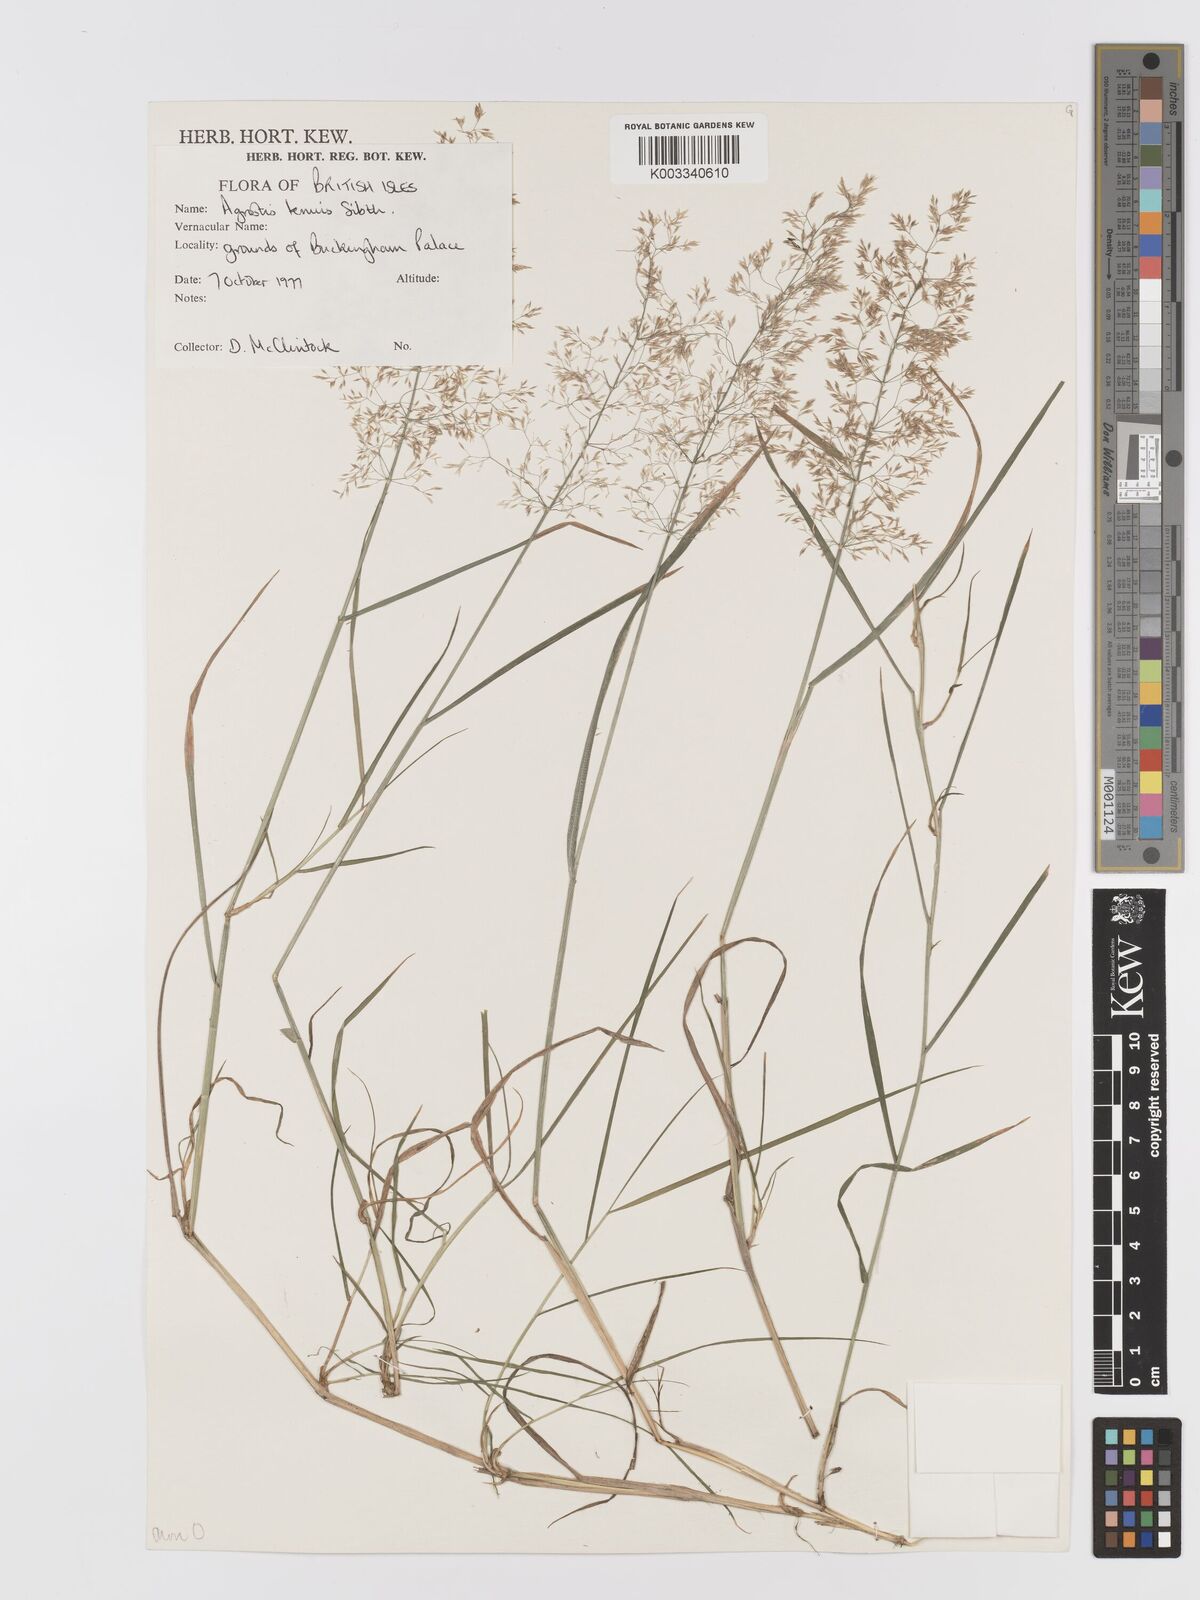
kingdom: Plantae
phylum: Tracheophyta
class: Liliopsida
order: Poales
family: Poaceae
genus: Agrostis
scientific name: Agrostis capillaris
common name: Colonial bentgrass
